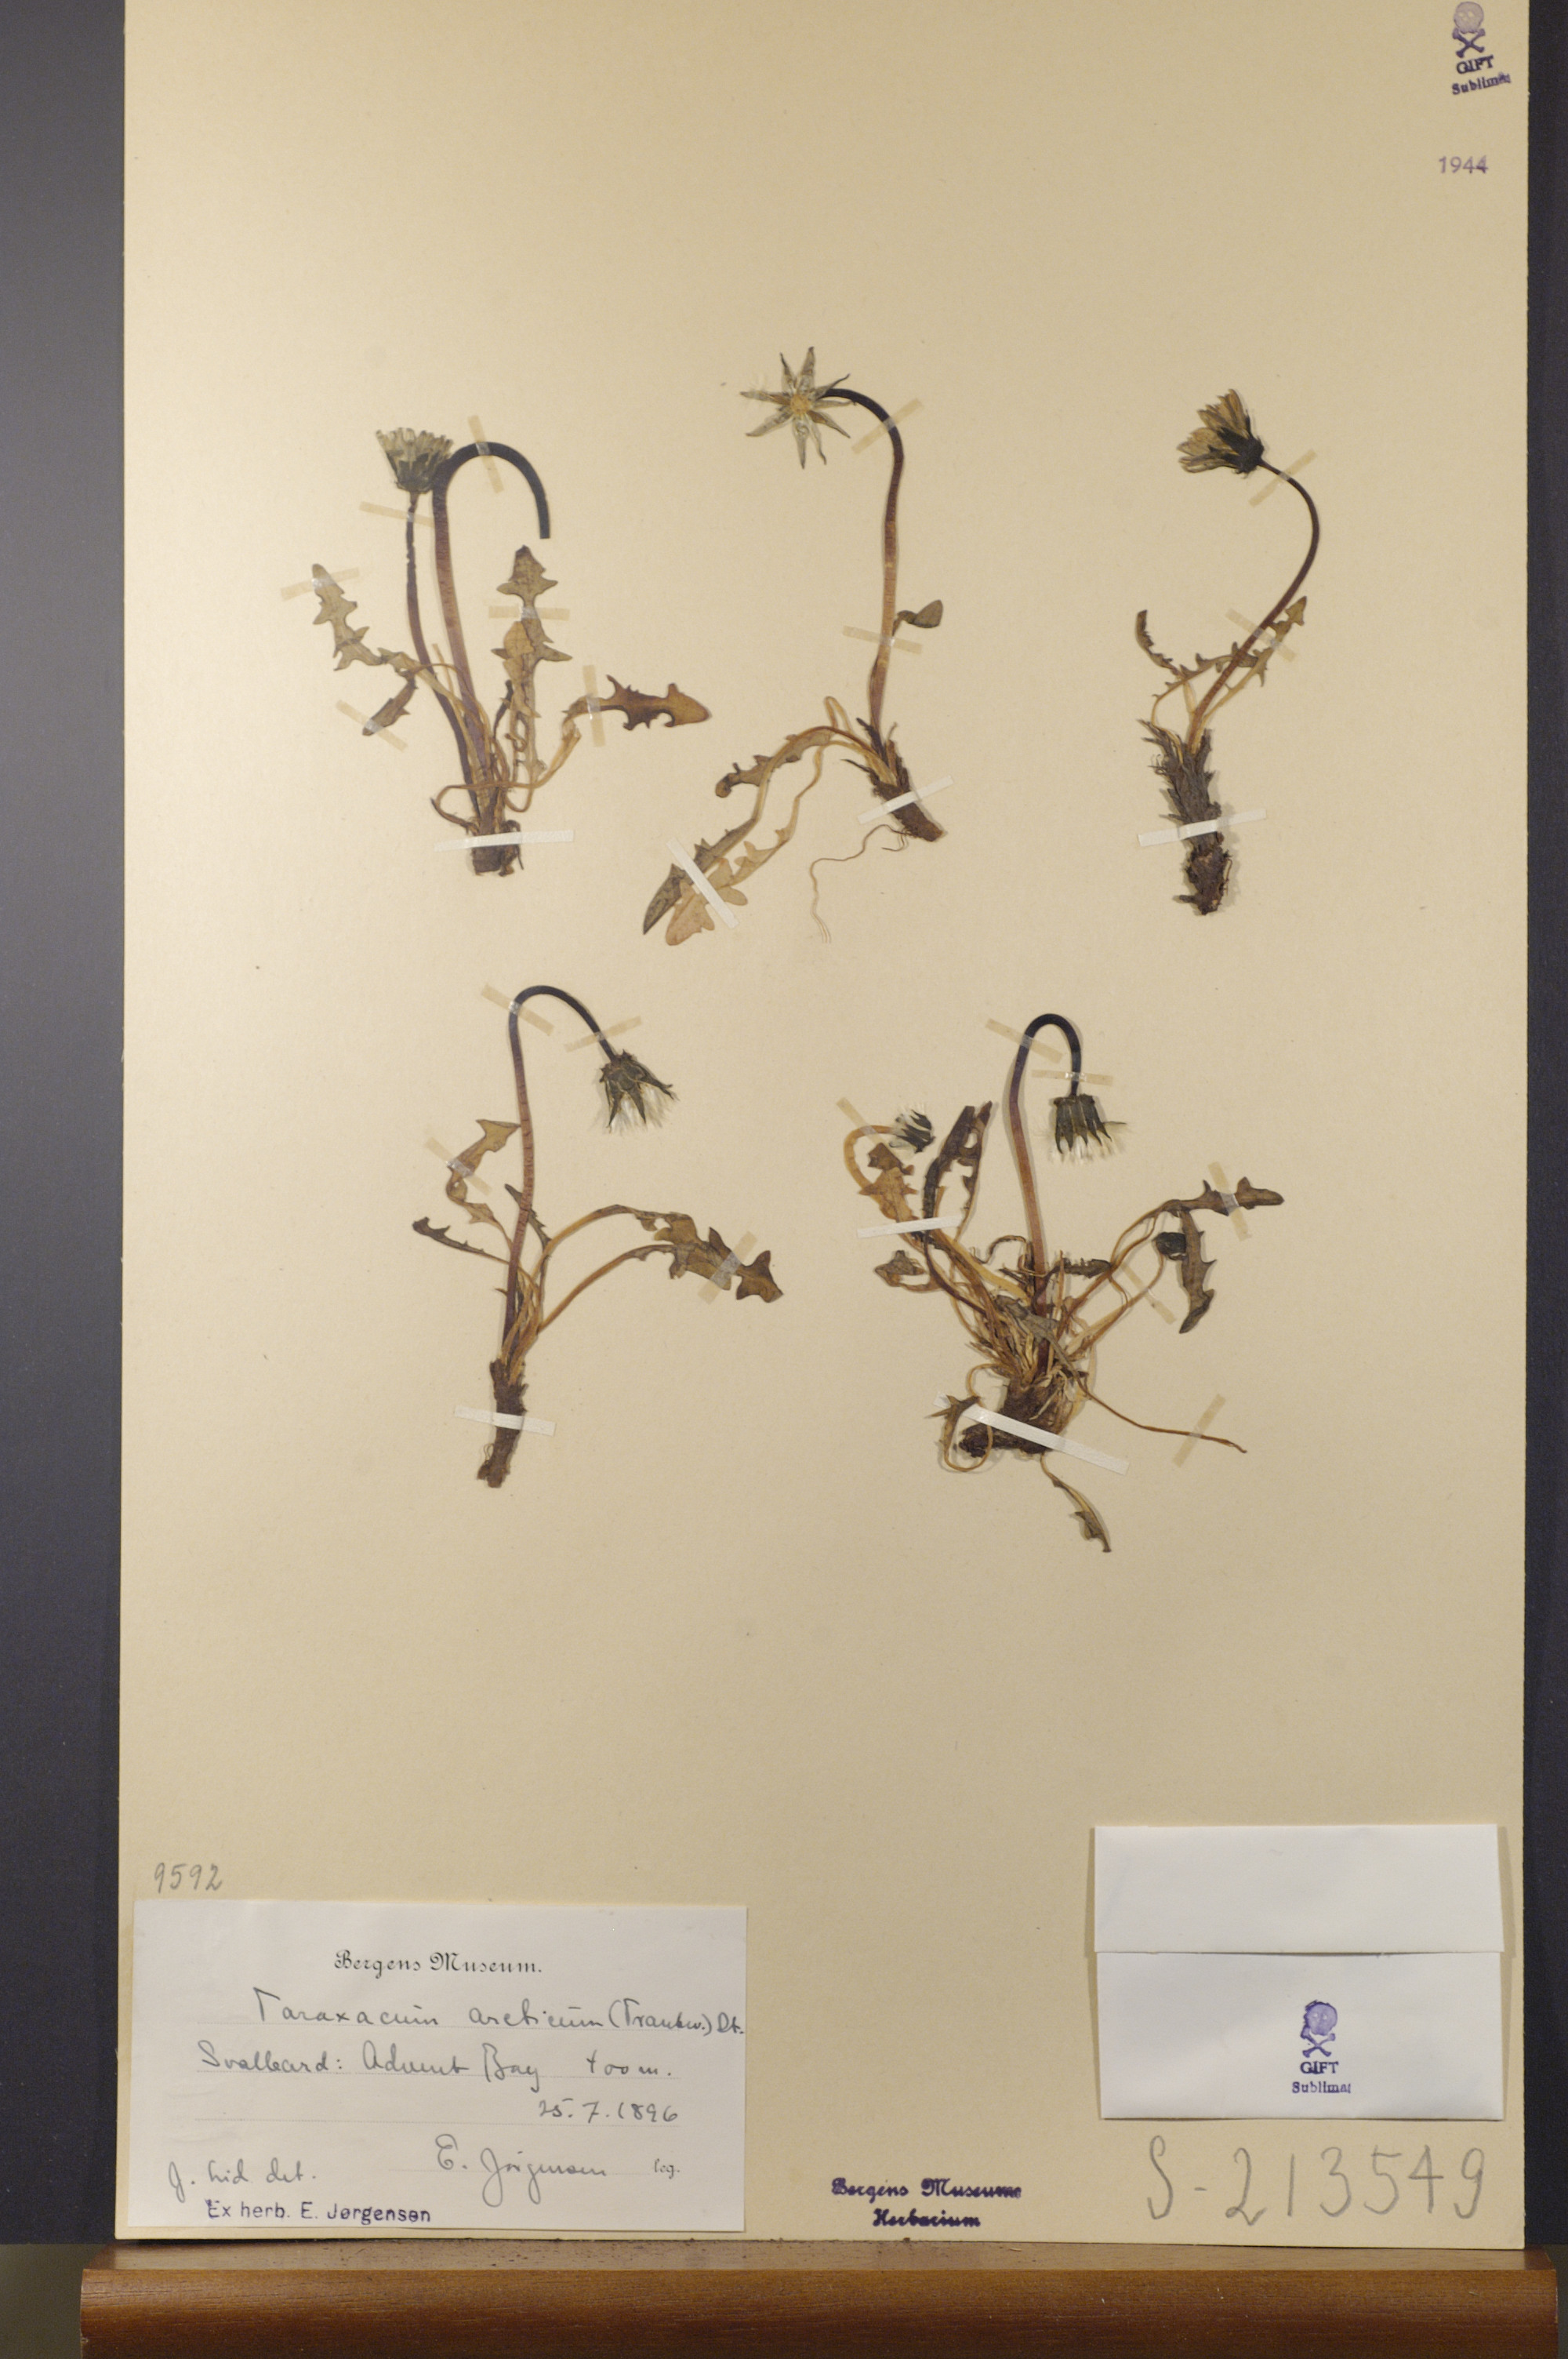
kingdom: Plantae
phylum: Tracheophyta
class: Magnoliopsida
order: Asterales
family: Asteraceae
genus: Taraxacum
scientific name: Taraxacum arcticum
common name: Arctic dandelion
